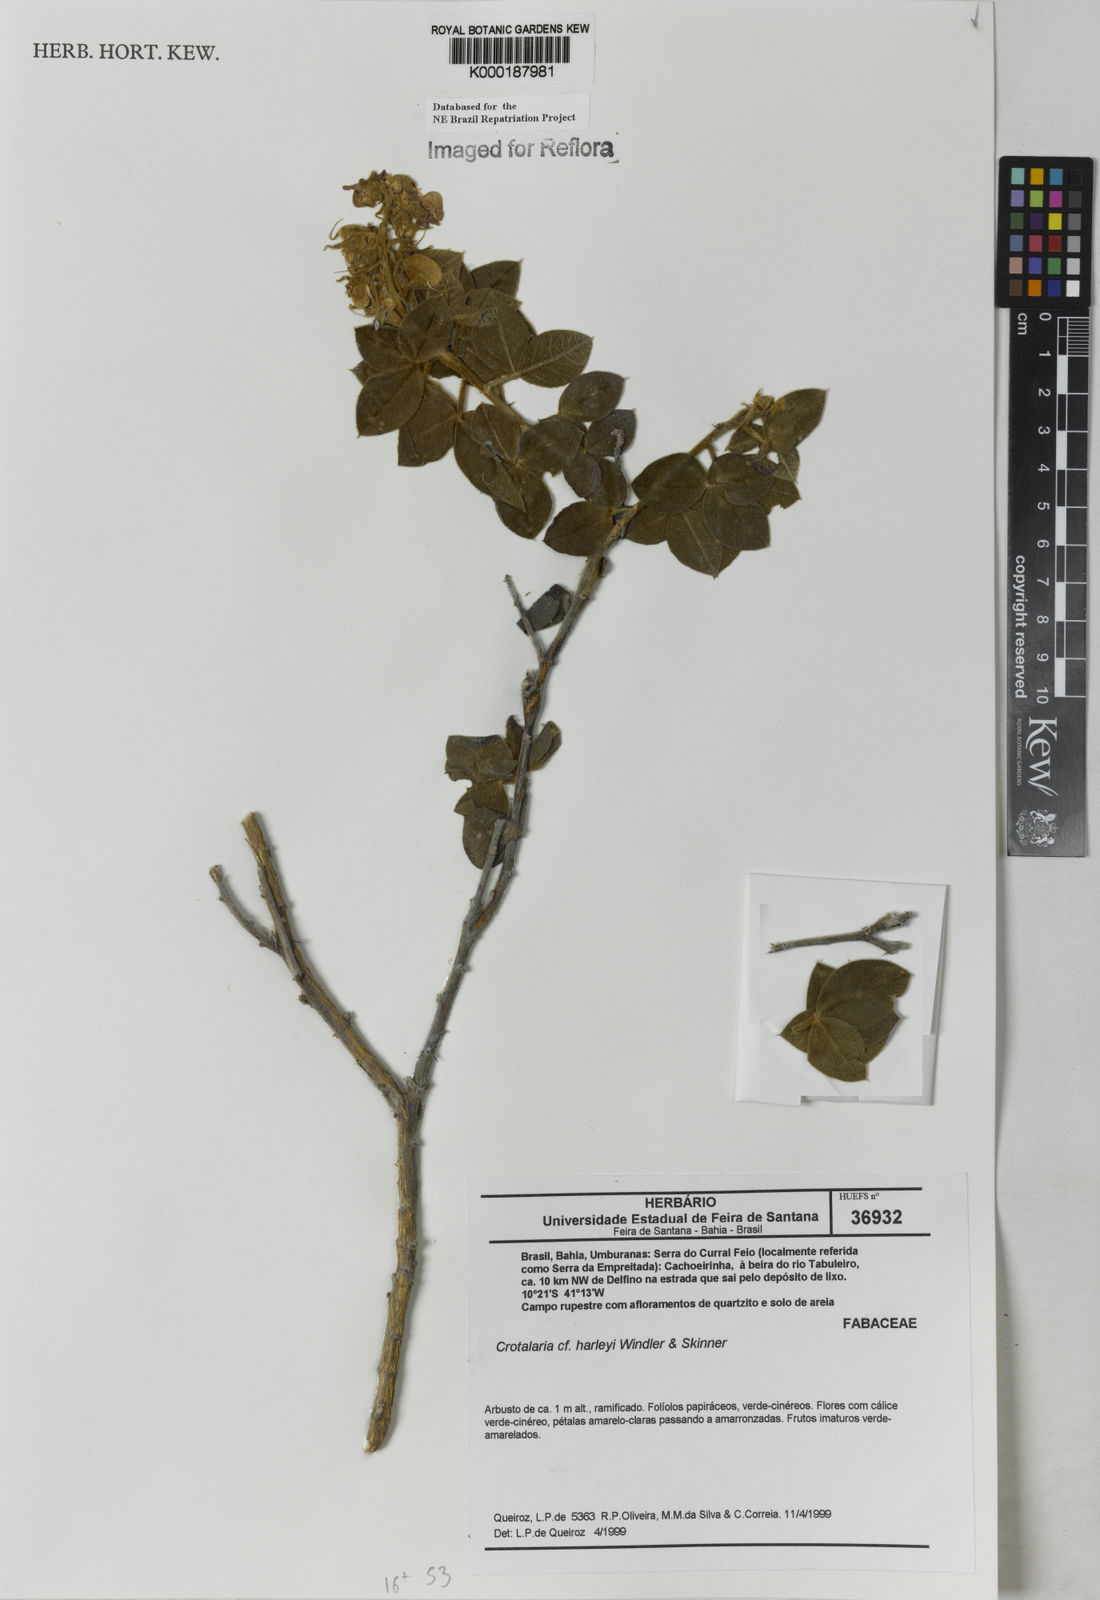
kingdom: Plantae
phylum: Tracheophyta
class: Magnoliopsida
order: Fabales
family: Fabaceae
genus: Crotalaria
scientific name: Crotalaria harleyi
